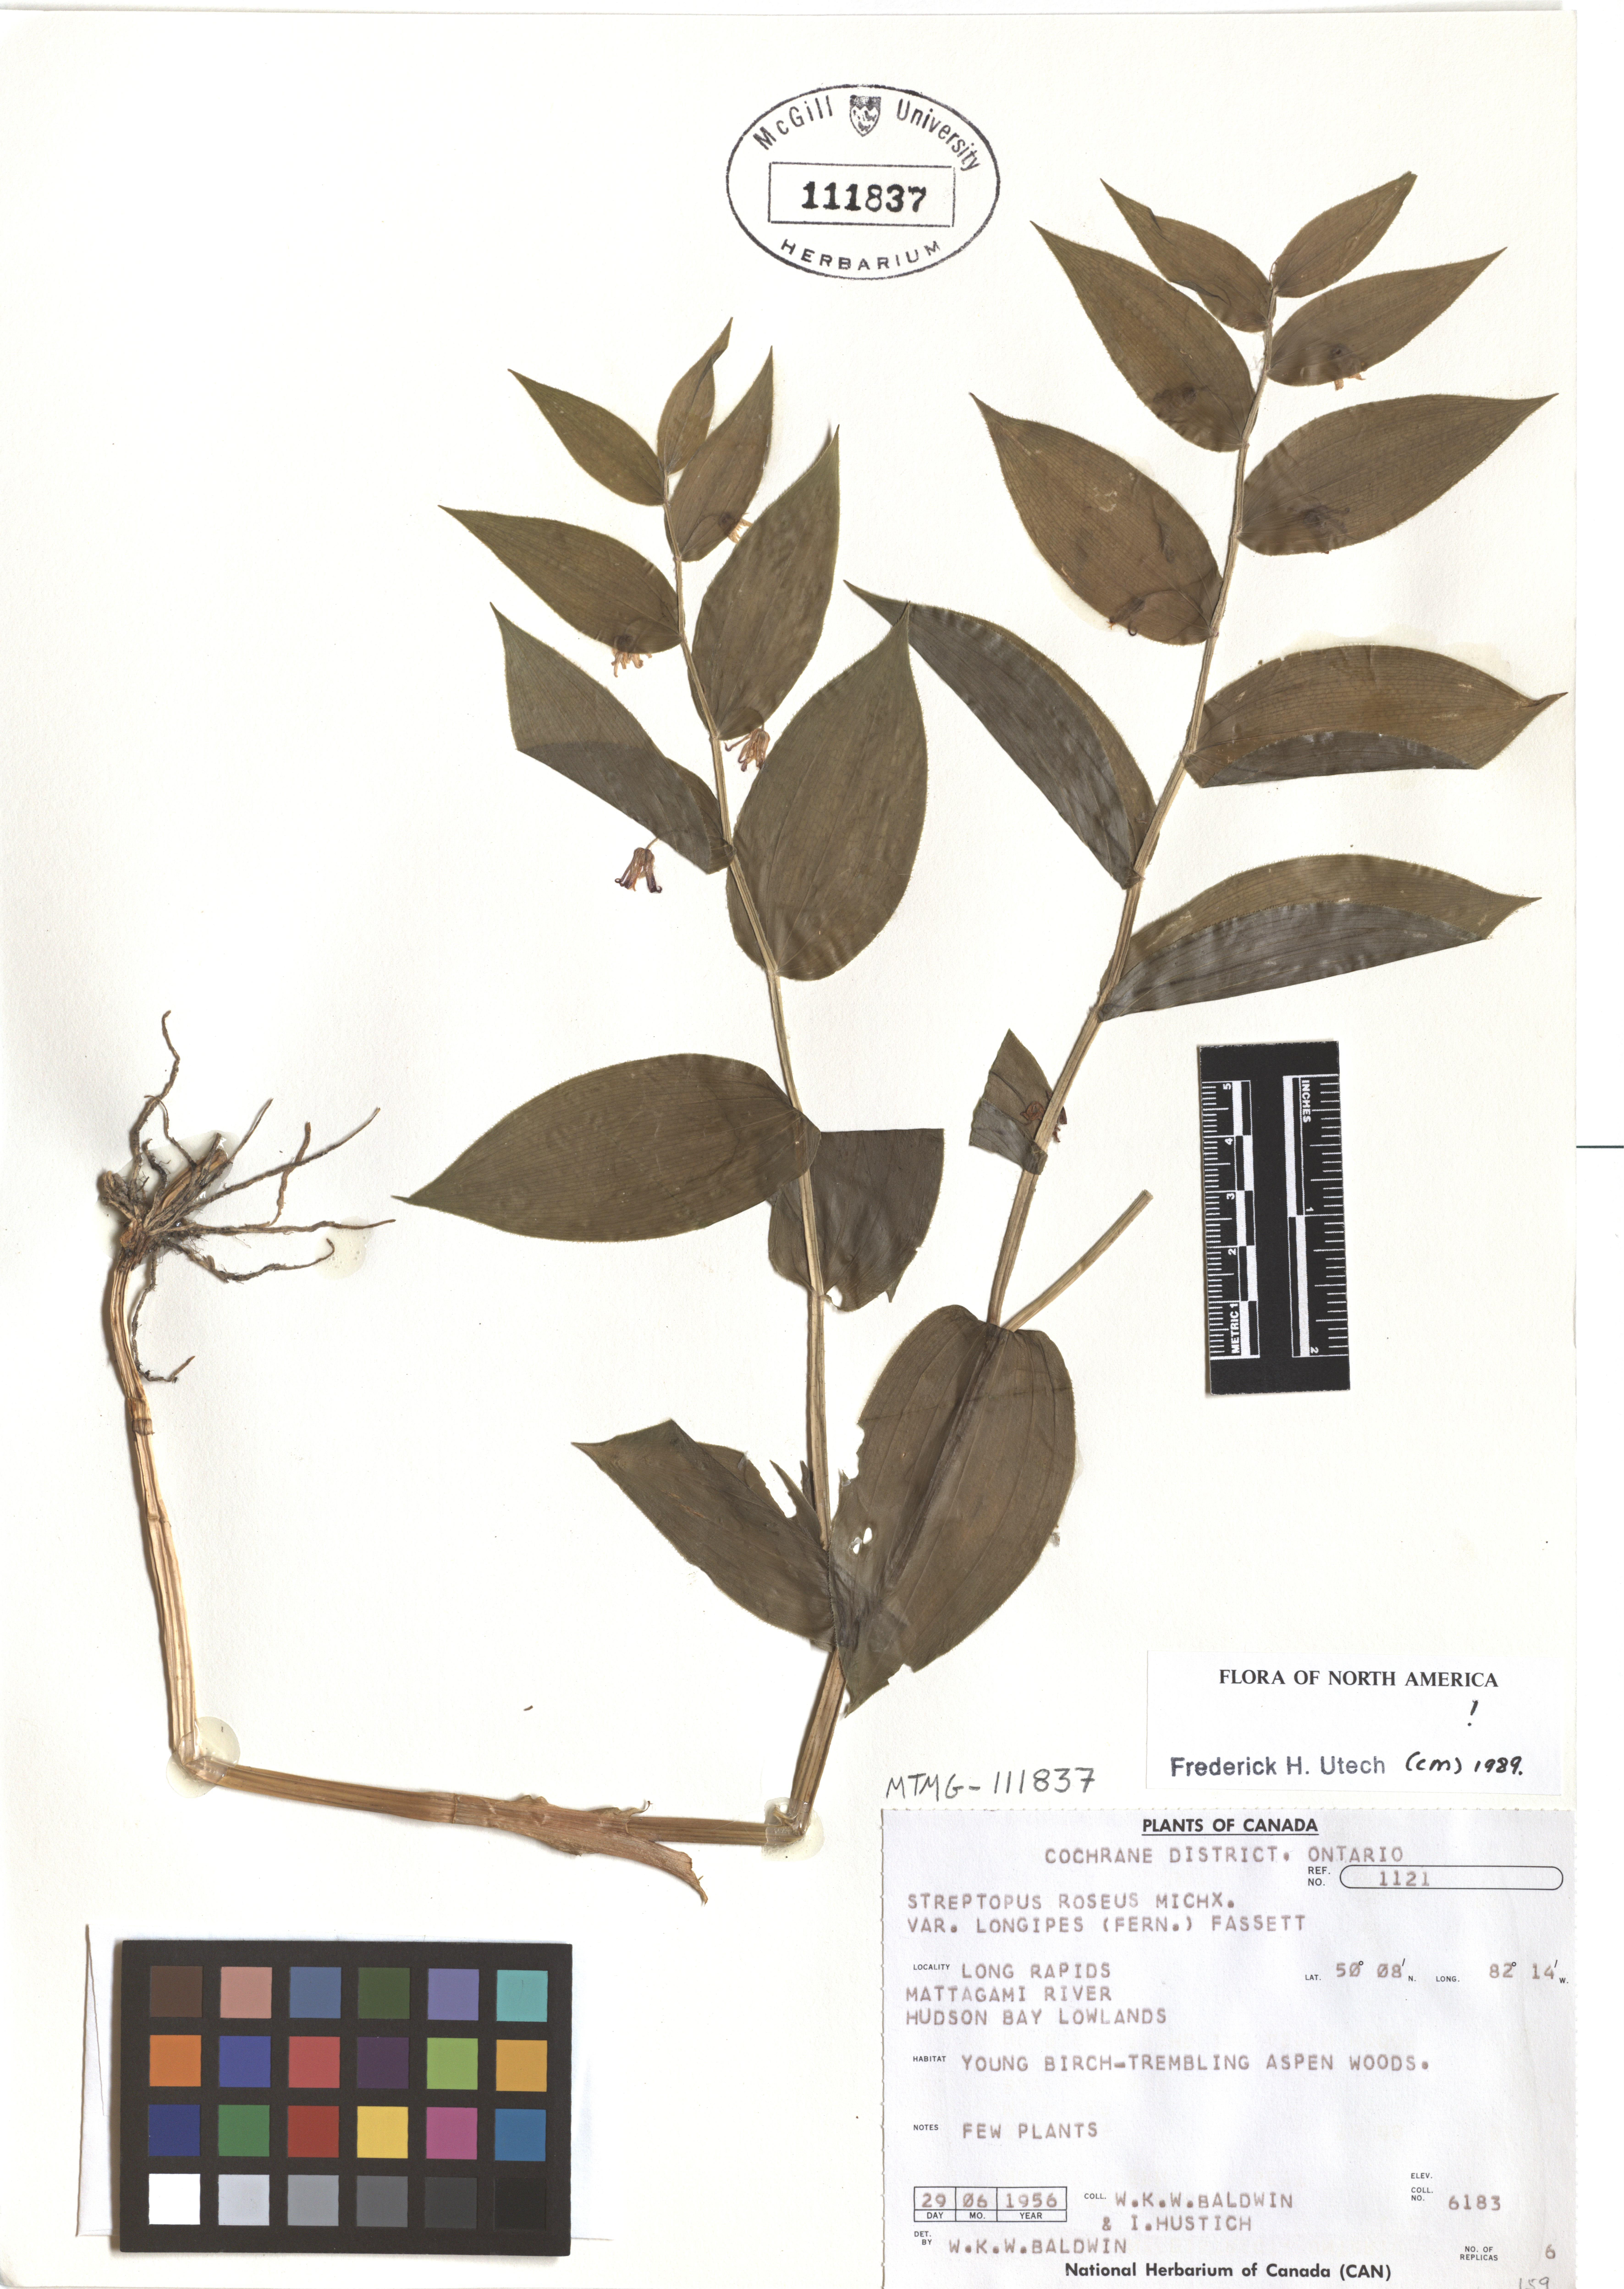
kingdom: Plantae
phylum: Tracheophyta
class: Liliopsida
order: Liliales
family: Liliaceae
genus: Streptopus
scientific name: Streptopus lanceolatus
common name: Rose mandarin
